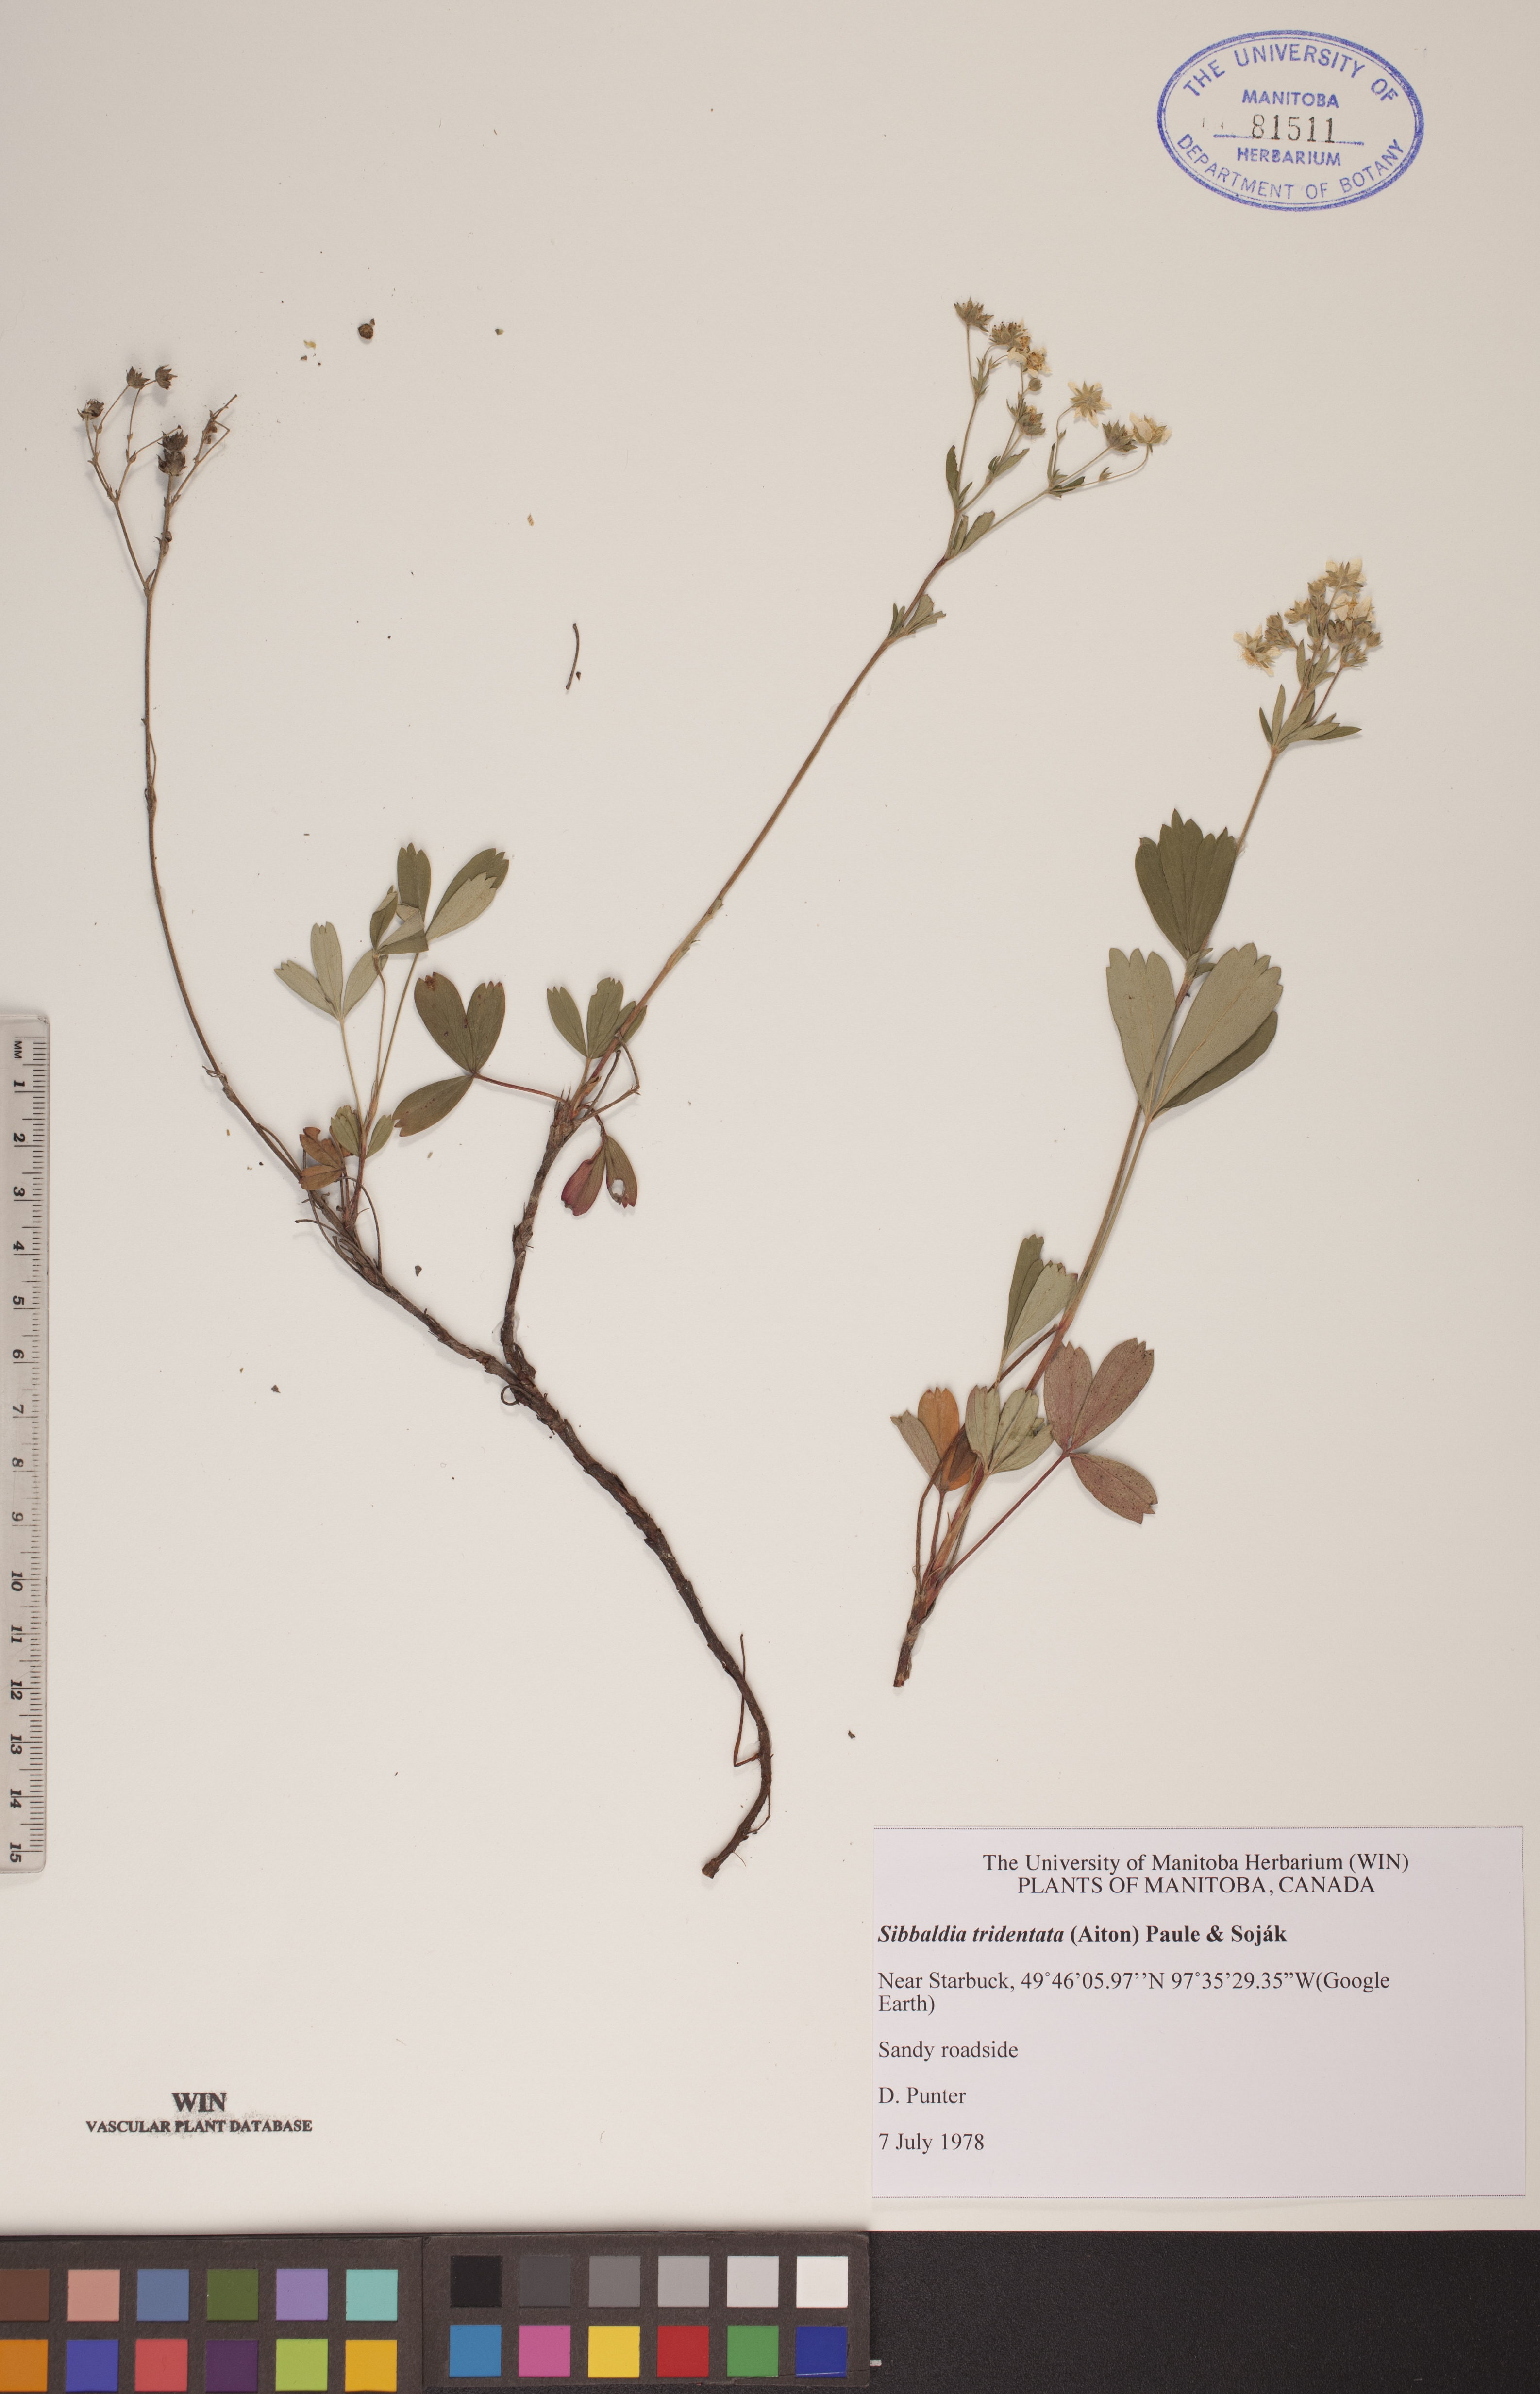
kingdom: Plantae
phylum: Tracheophyta
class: Magnoliopsida
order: Rosales
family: Rosaceae
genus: Sibbaldia
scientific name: Sibbaldia tridentata
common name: Three-toothed cinquefoil
